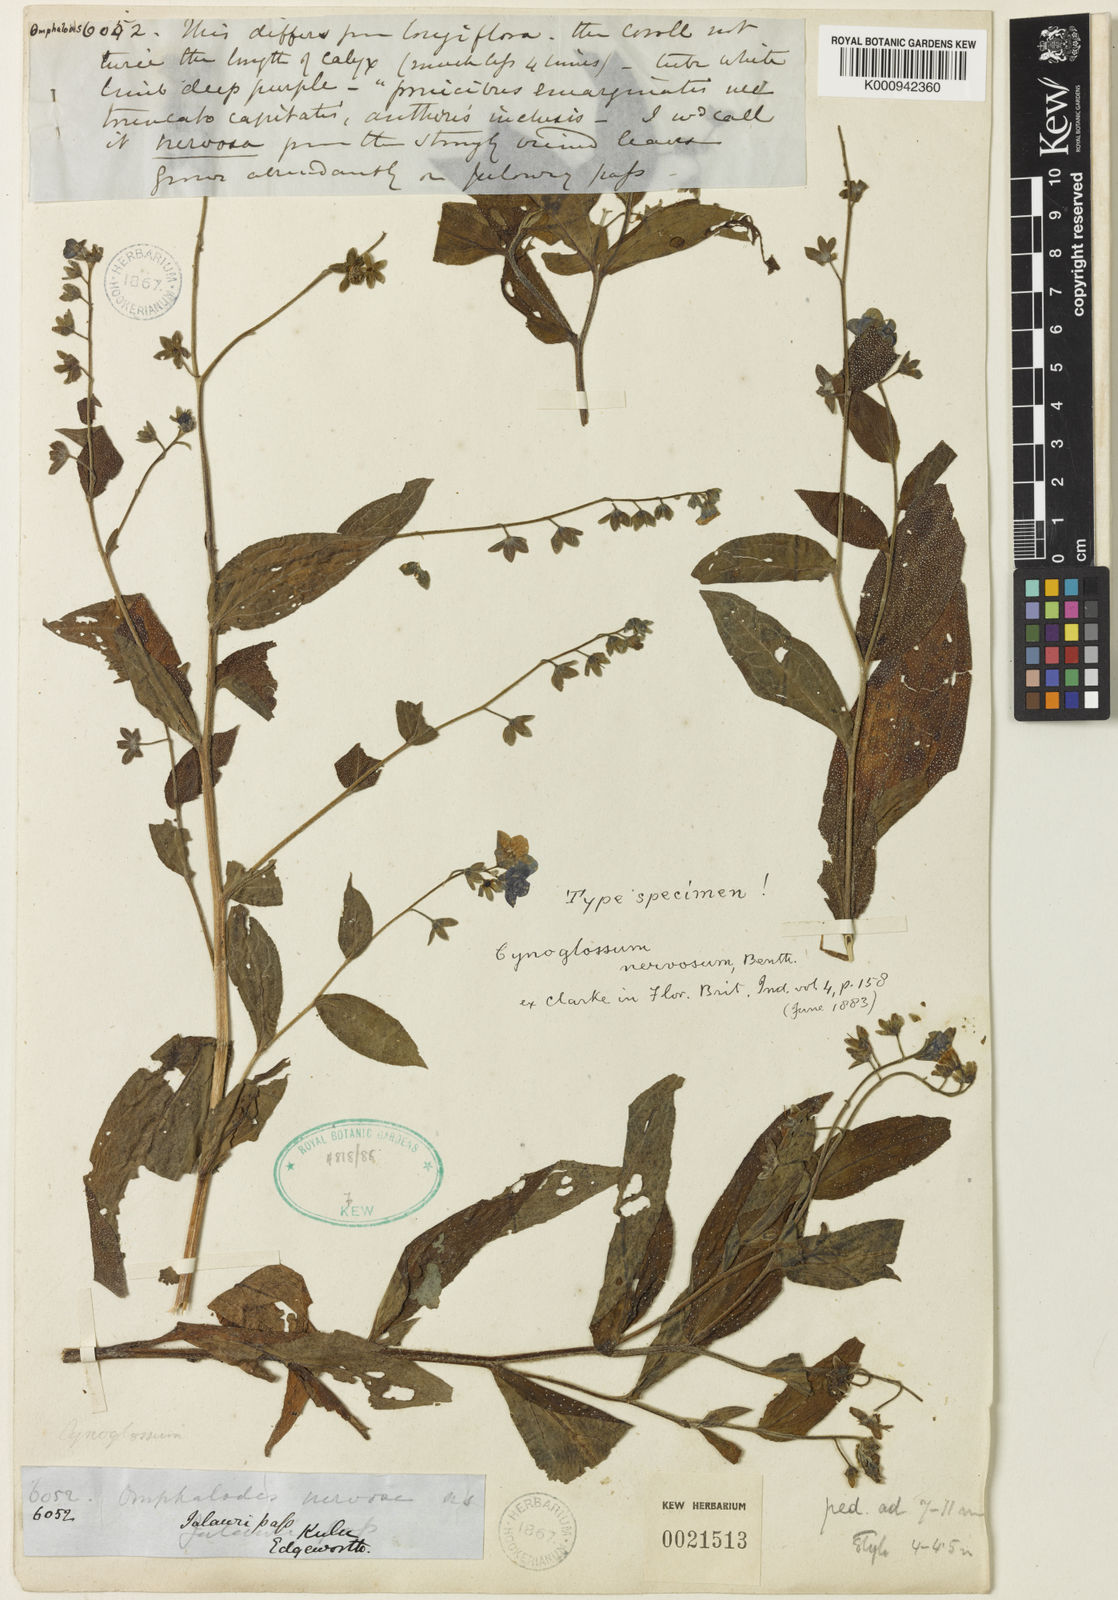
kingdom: Plantae
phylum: Tracheophyta
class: Magnoliopsida
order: Boraginales
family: Boraginaceae
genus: Cynoglossum
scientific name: Cynoglossum
